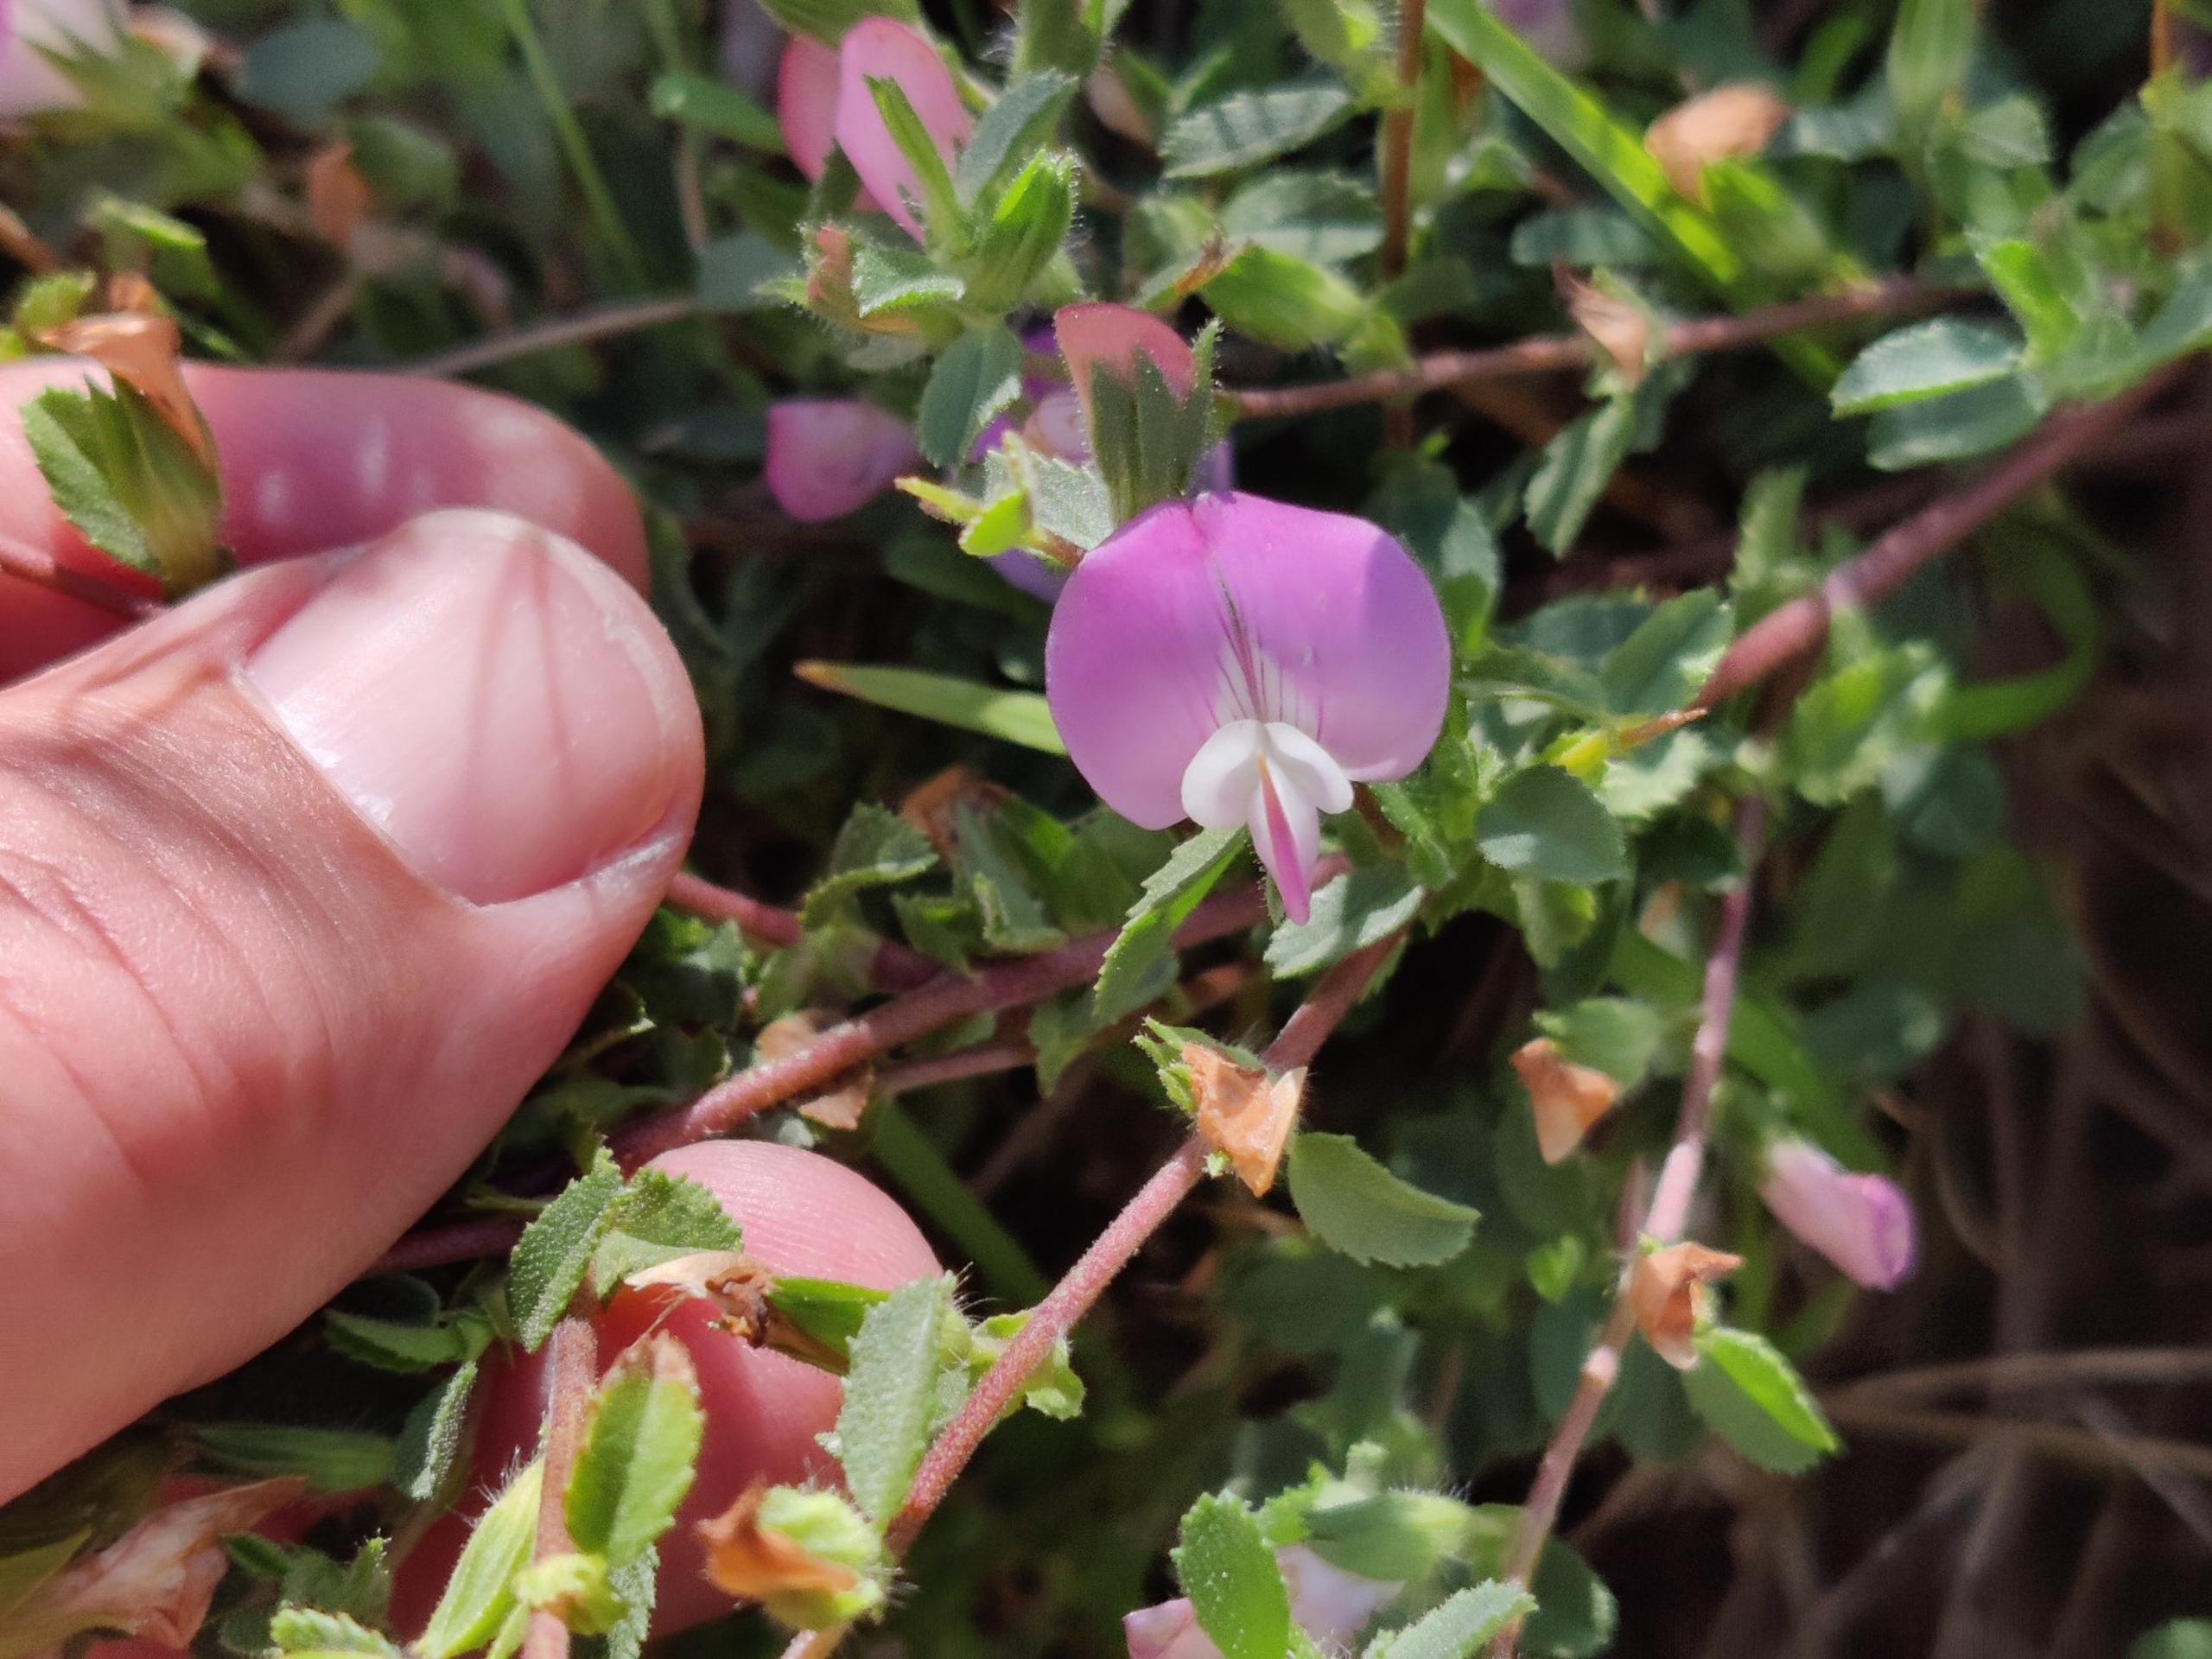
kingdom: Plantae
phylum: Tracheophyta
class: Magnoliopsida
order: Fabales
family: Fabaceae
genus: Ononis
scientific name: Ononis spinosa
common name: Krageklo
